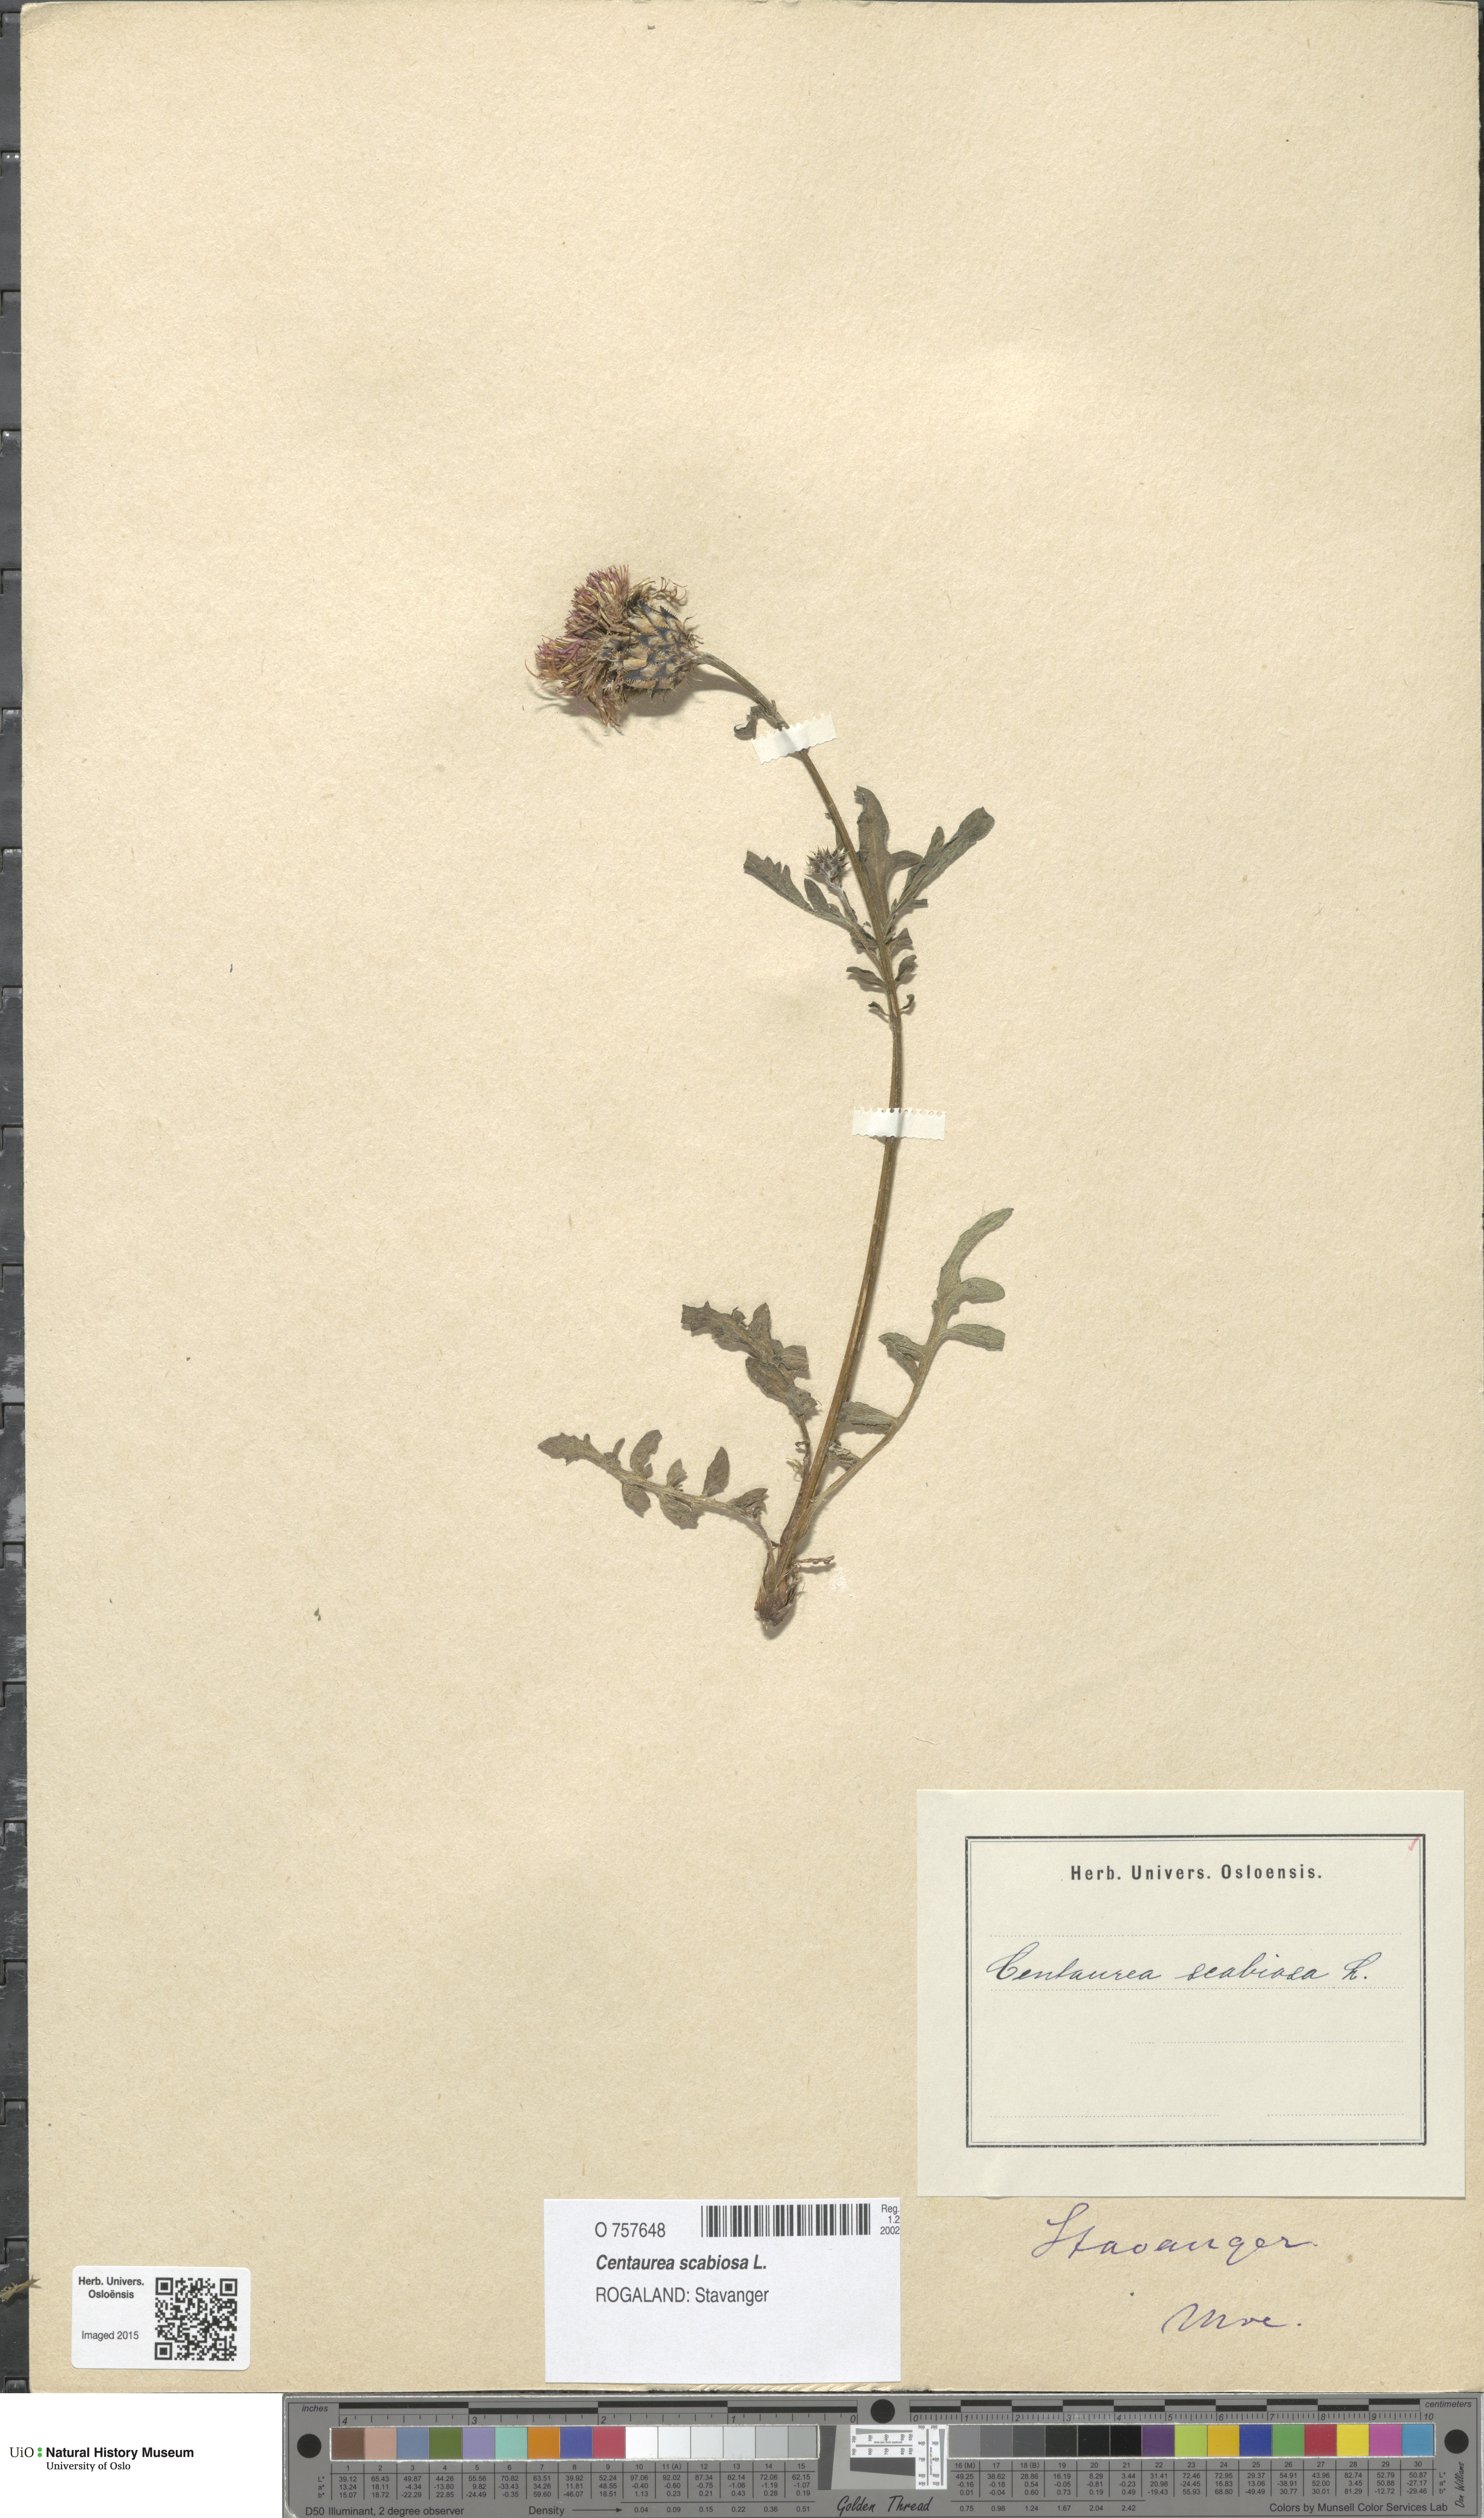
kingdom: Plantae
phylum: Tracheophyta
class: Magnoliopsida
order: Asterales
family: Asteraceae
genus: Centaurea
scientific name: Centaurea scabiosa
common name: Greater knapweed
